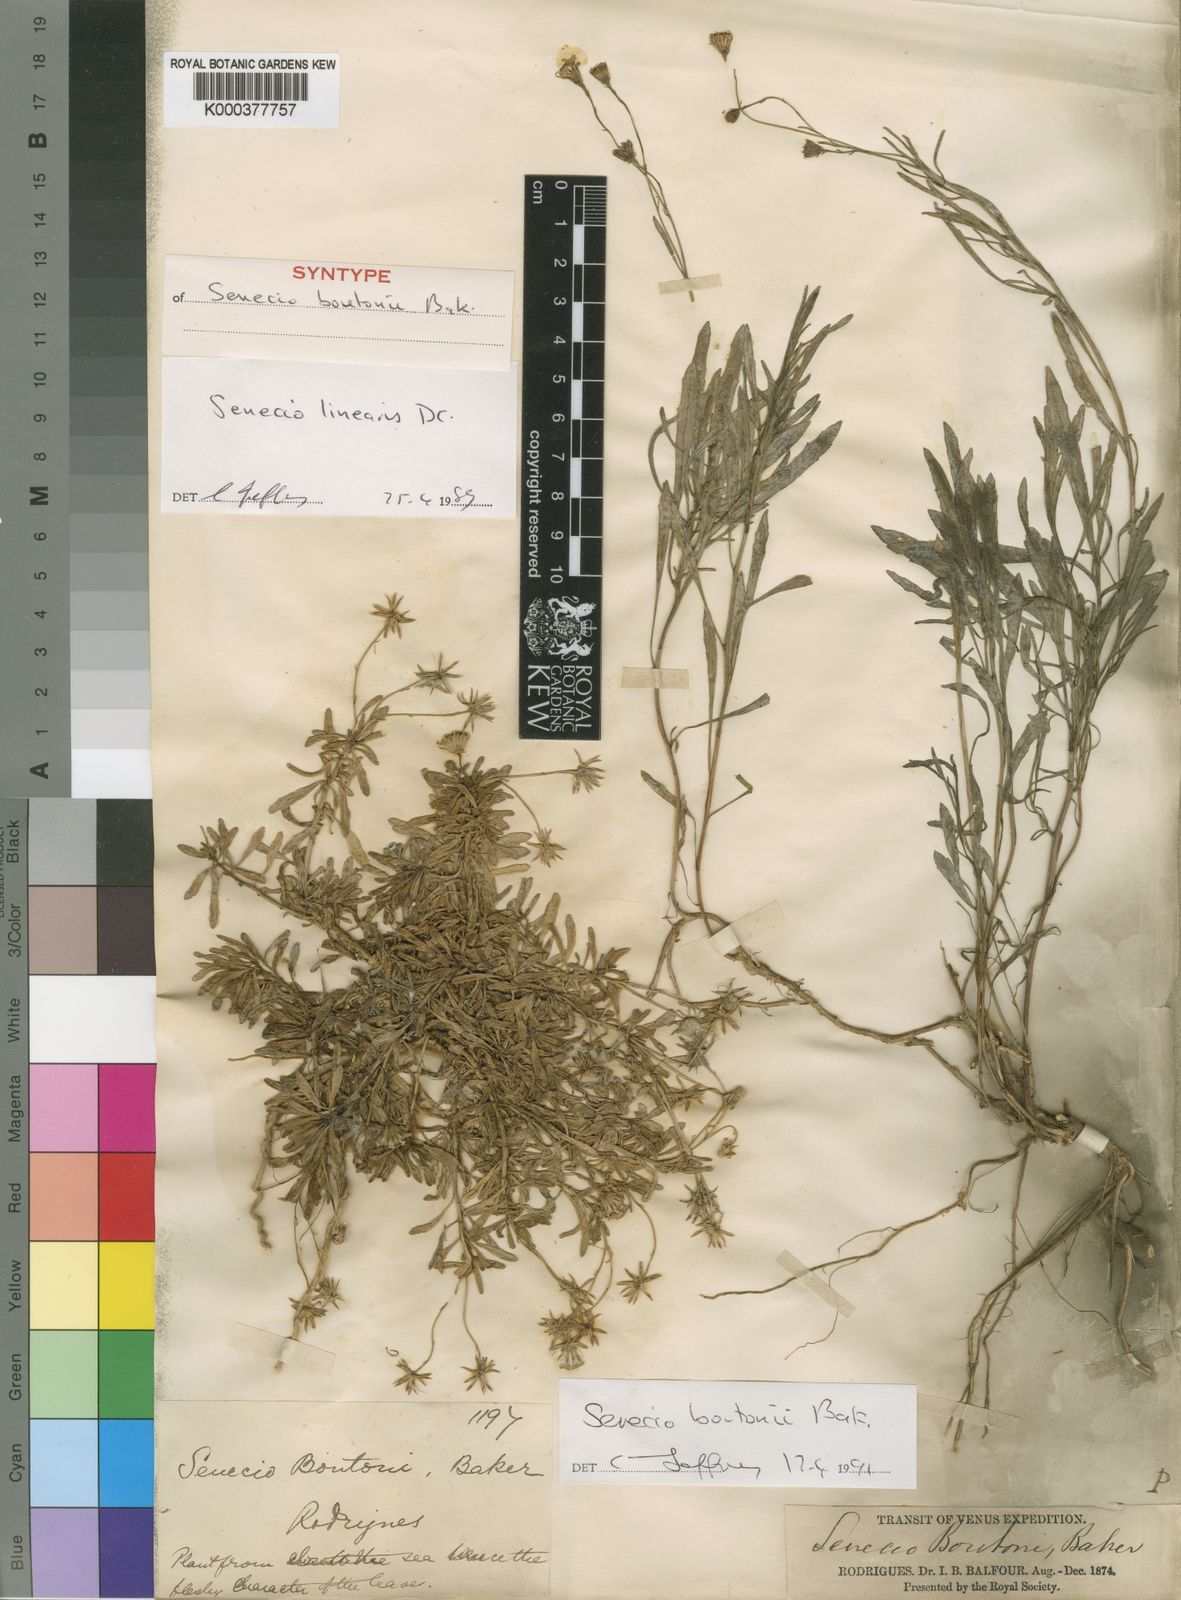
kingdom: Plantae
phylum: Tracheophyta
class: Magnoliopsida
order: Asterales
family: Asteraceae
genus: Senecio
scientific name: Senecio boutonii
